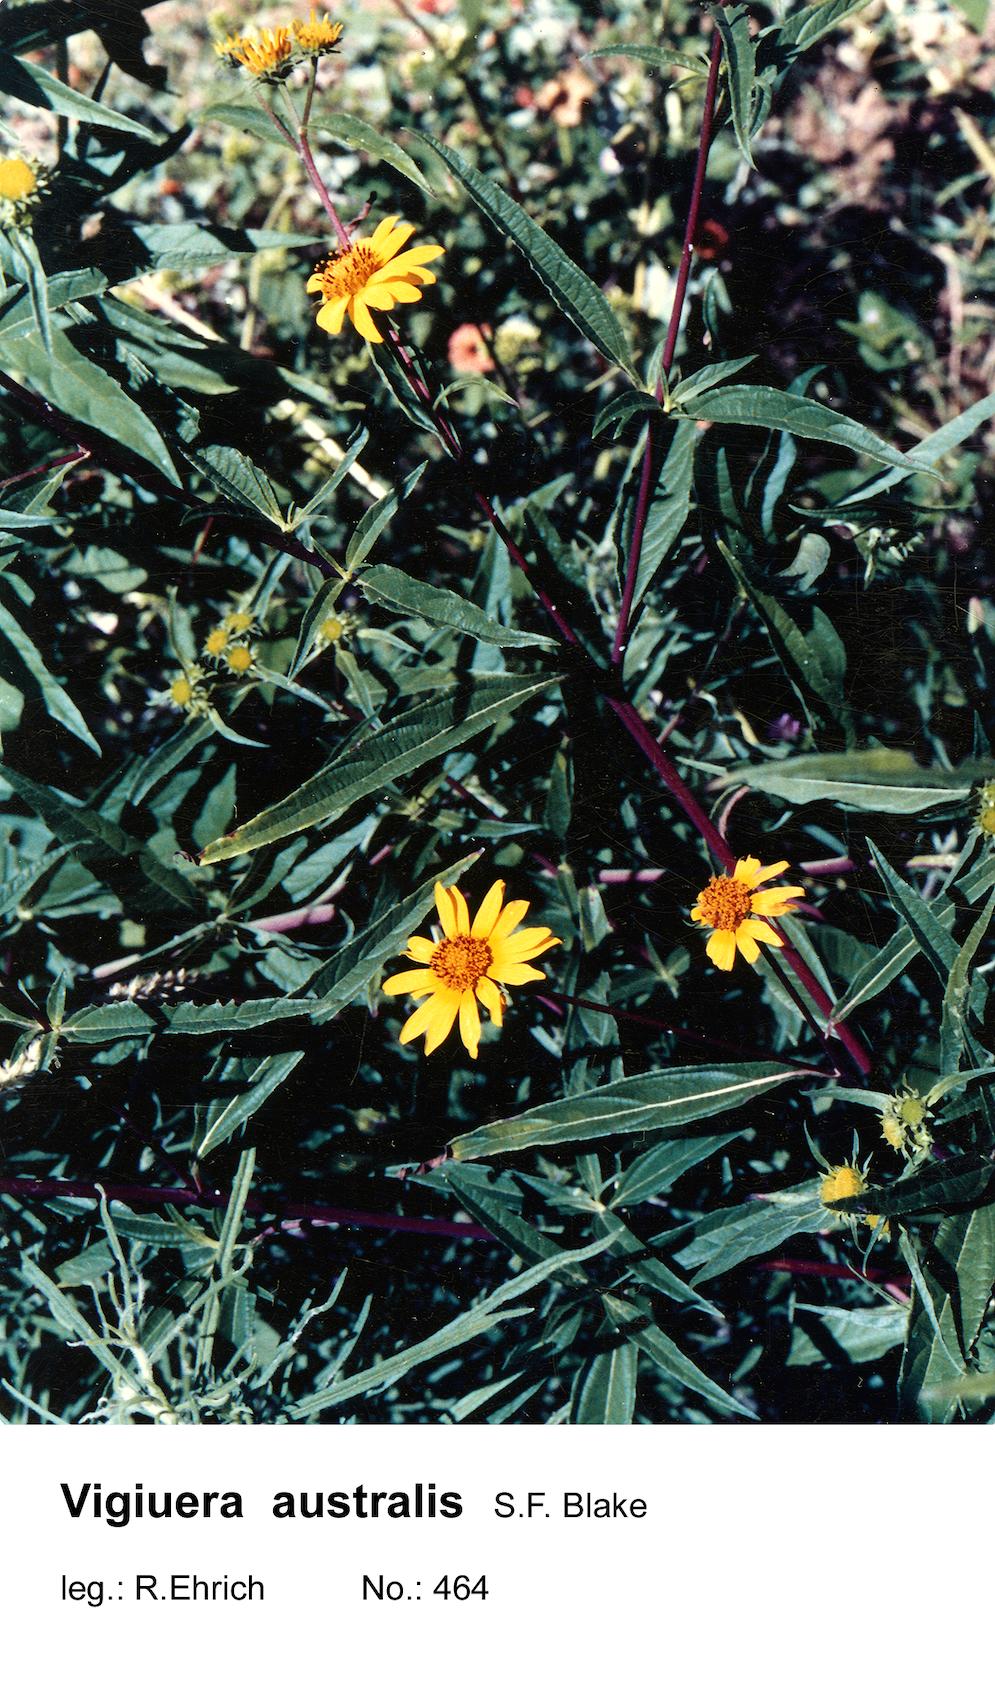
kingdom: Plantae
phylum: Tracheophyta
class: Magnoliopsida
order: Asterales
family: Asteraceae
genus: Aldama
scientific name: Aldama australis
